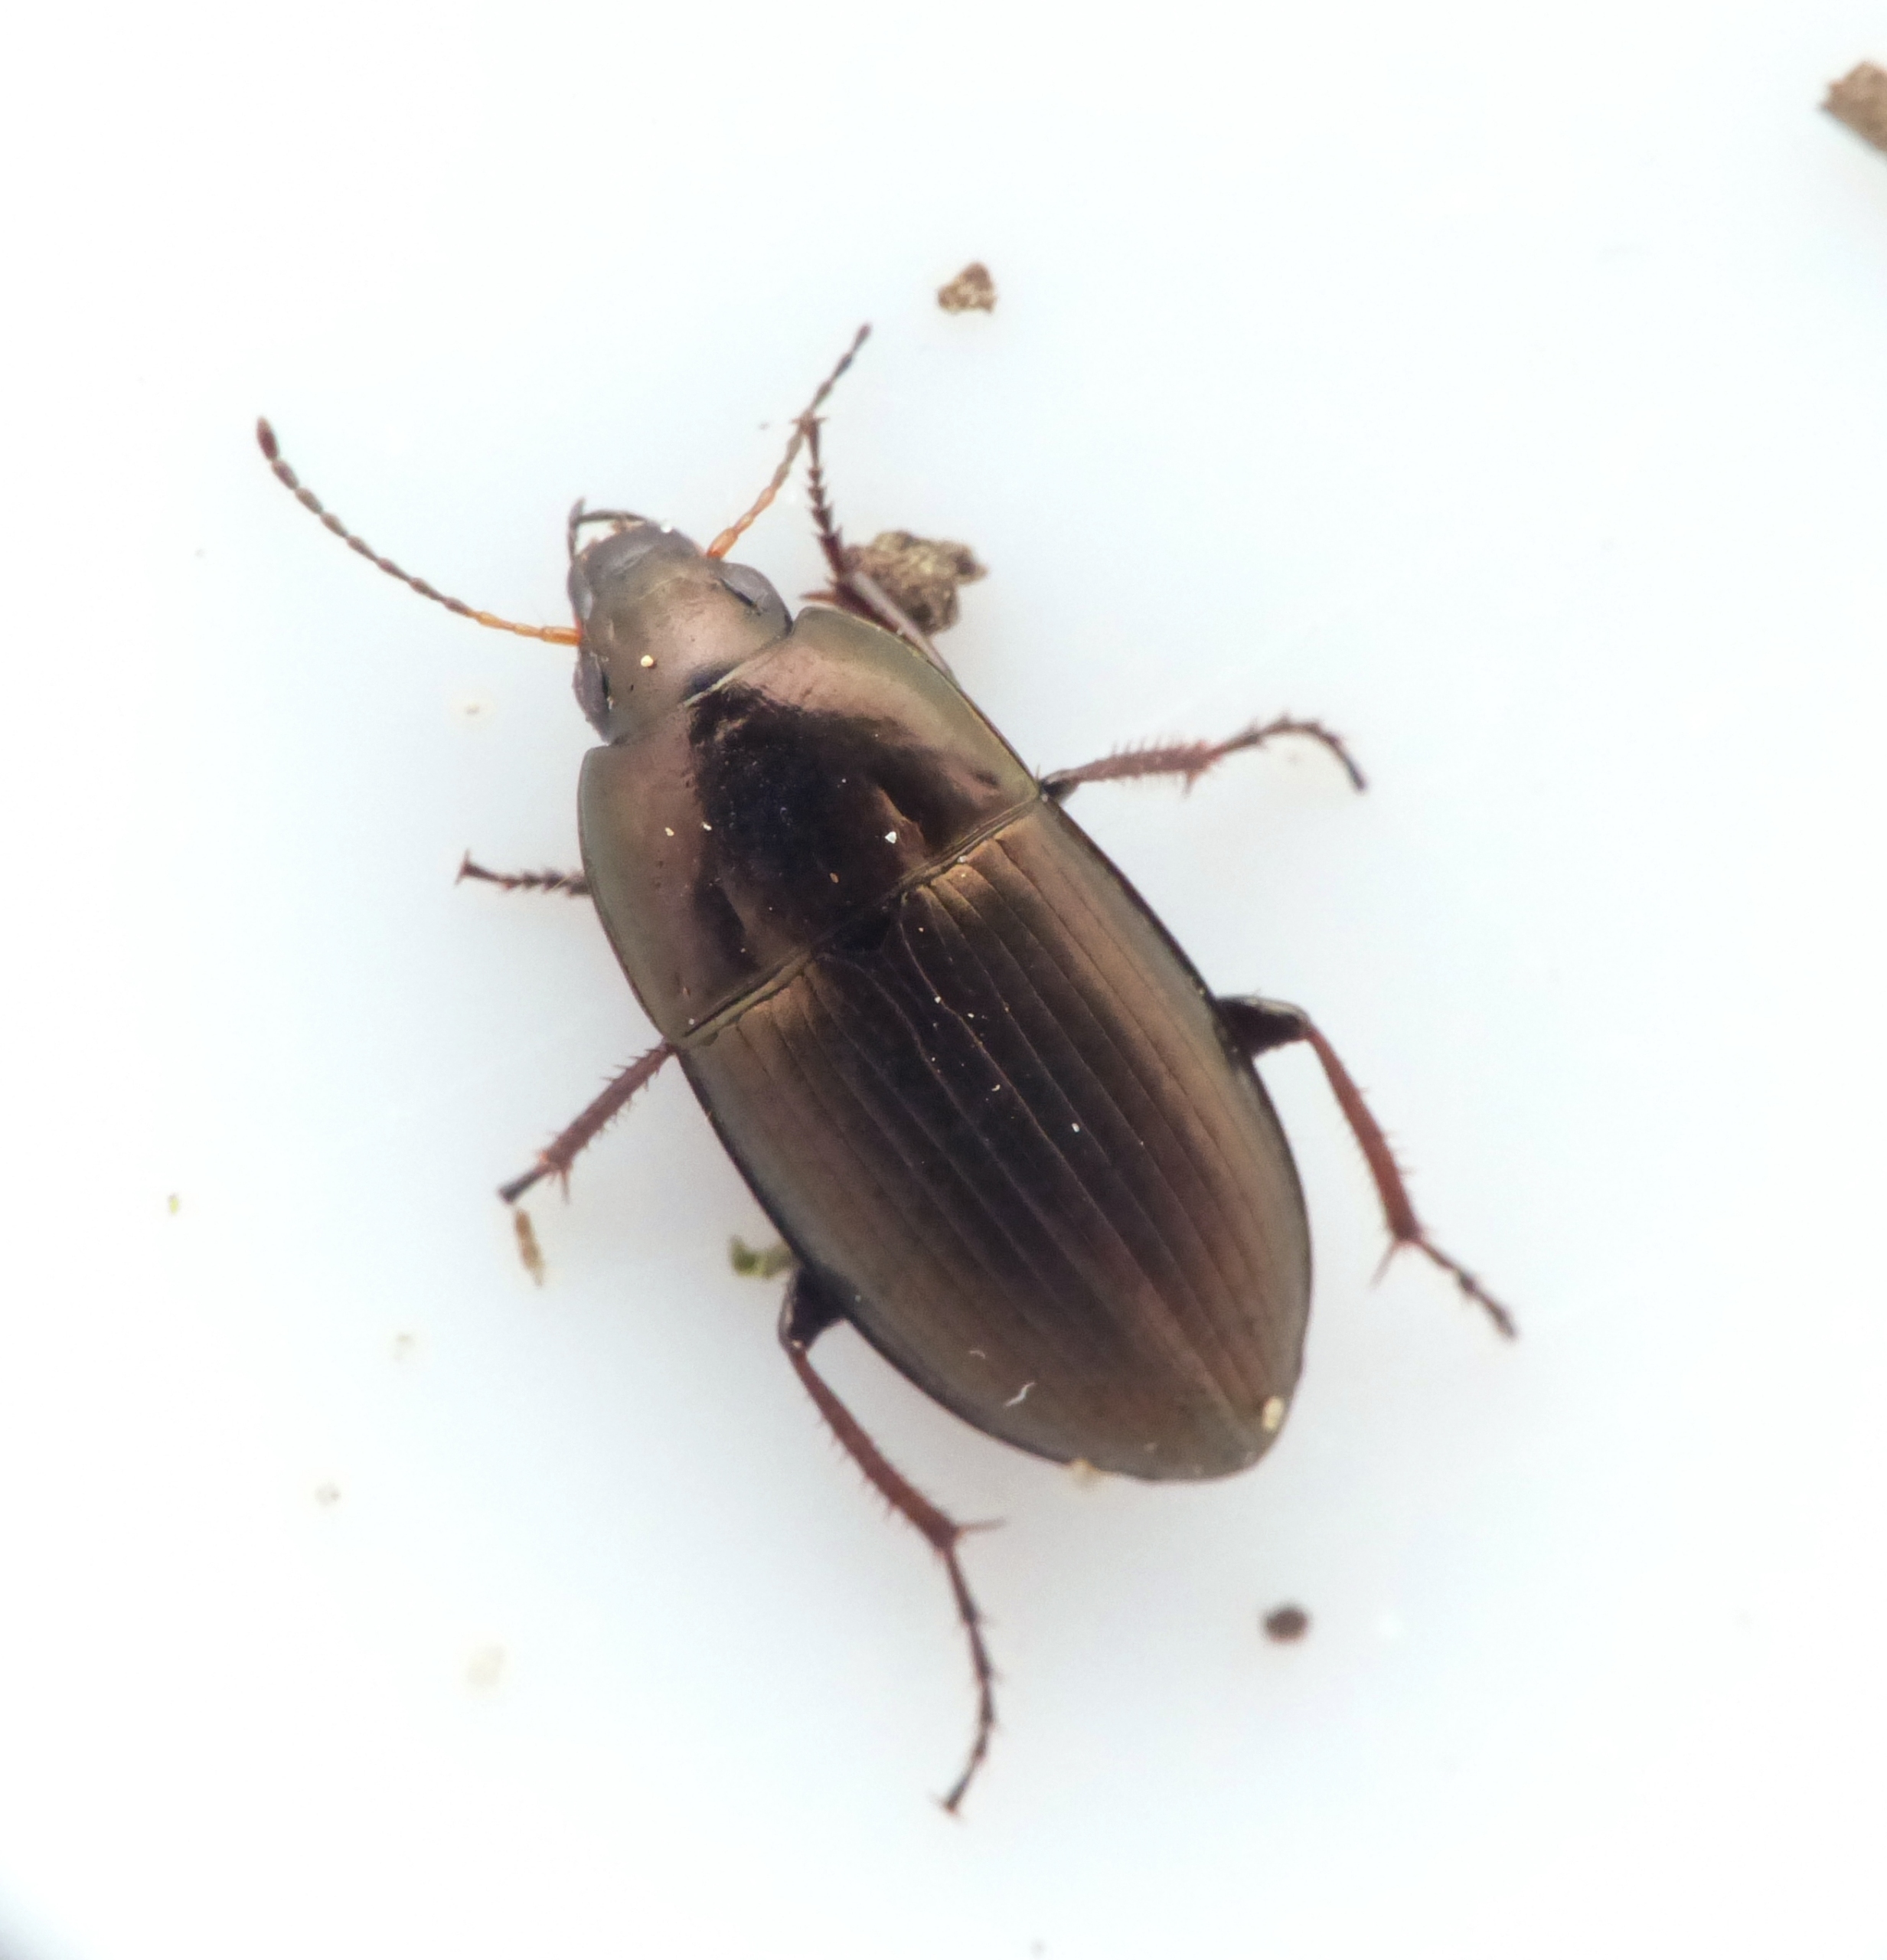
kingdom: Animalia
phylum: Arthropoda
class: Insecta
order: Coleoptera
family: Carabidae
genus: Amara
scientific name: Amara aenea
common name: Almindelig ovalløber
